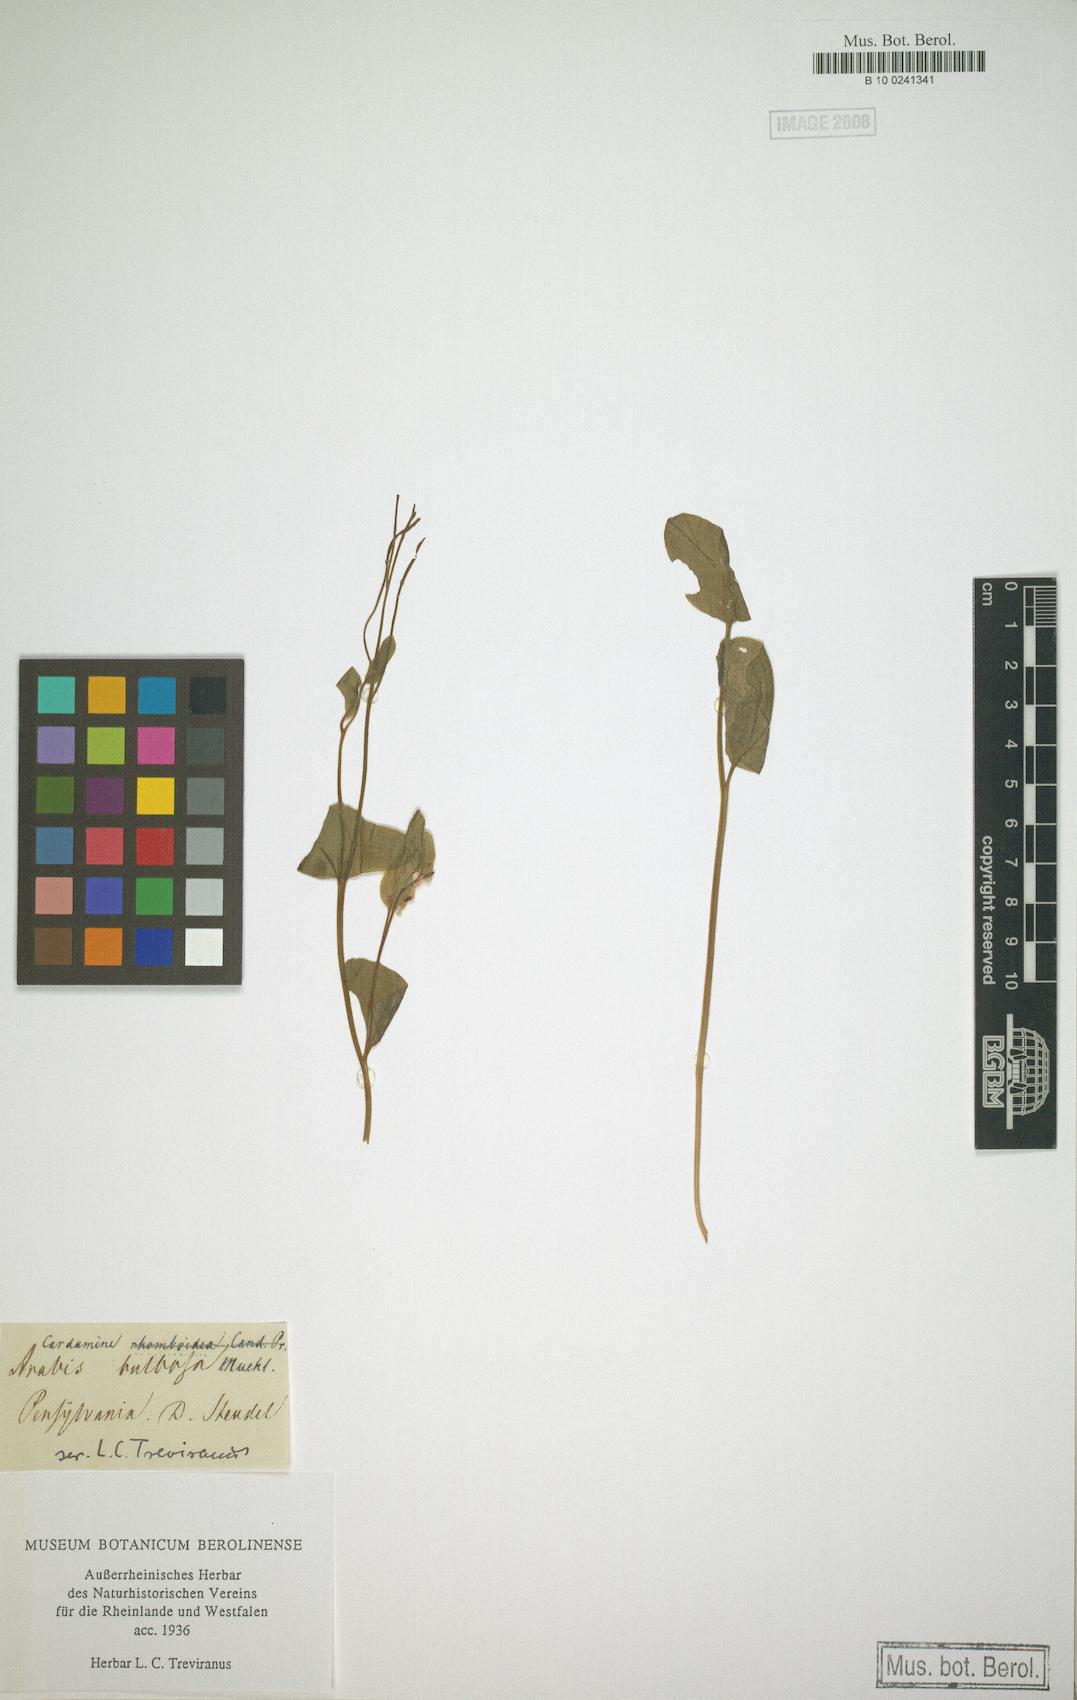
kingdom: Plantae
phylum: Tracheophyta
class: Magnoliopsida
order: Brassicales
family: Brassicaceae
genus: Cardamine
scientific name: Cardamine bulbosa
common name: Spring cress
